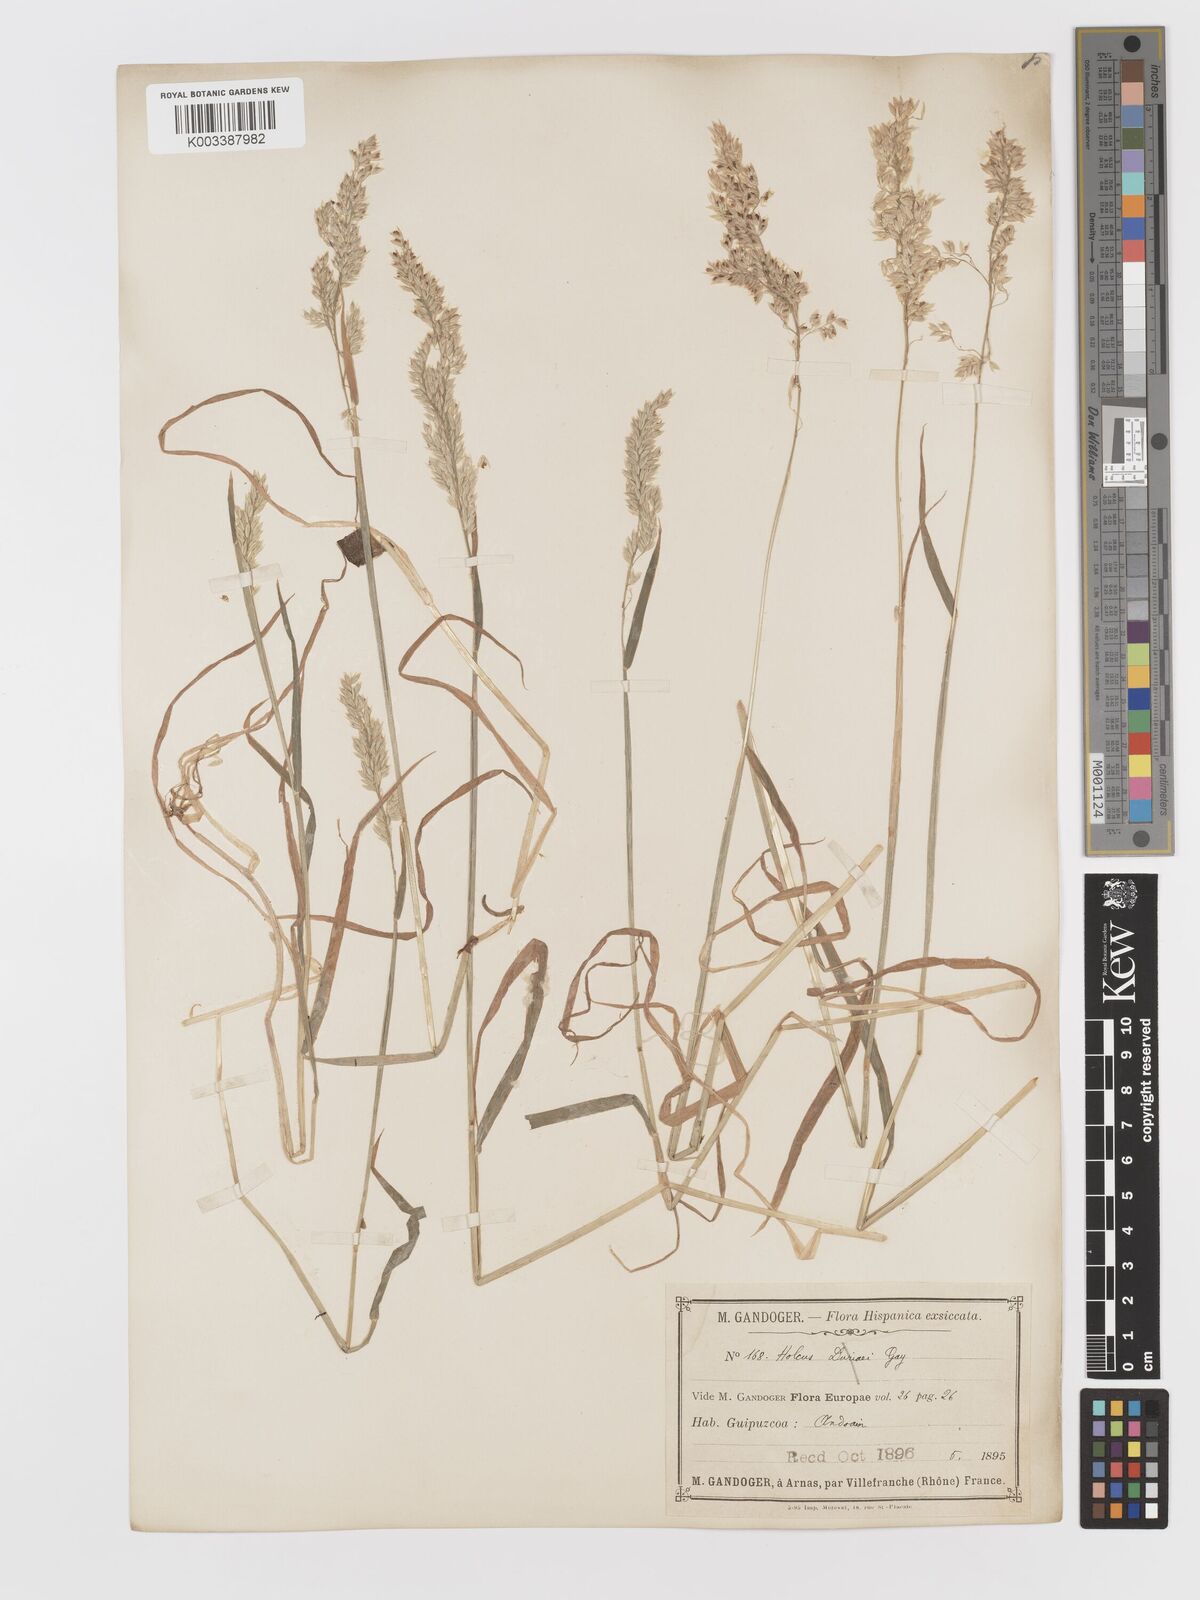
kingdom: Plantae
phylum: Tracheophyta
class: Liliopsida
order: Poales
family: Poaceae
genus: Holcus
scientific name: Holcus lanatus
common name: Yorkshire-fog
